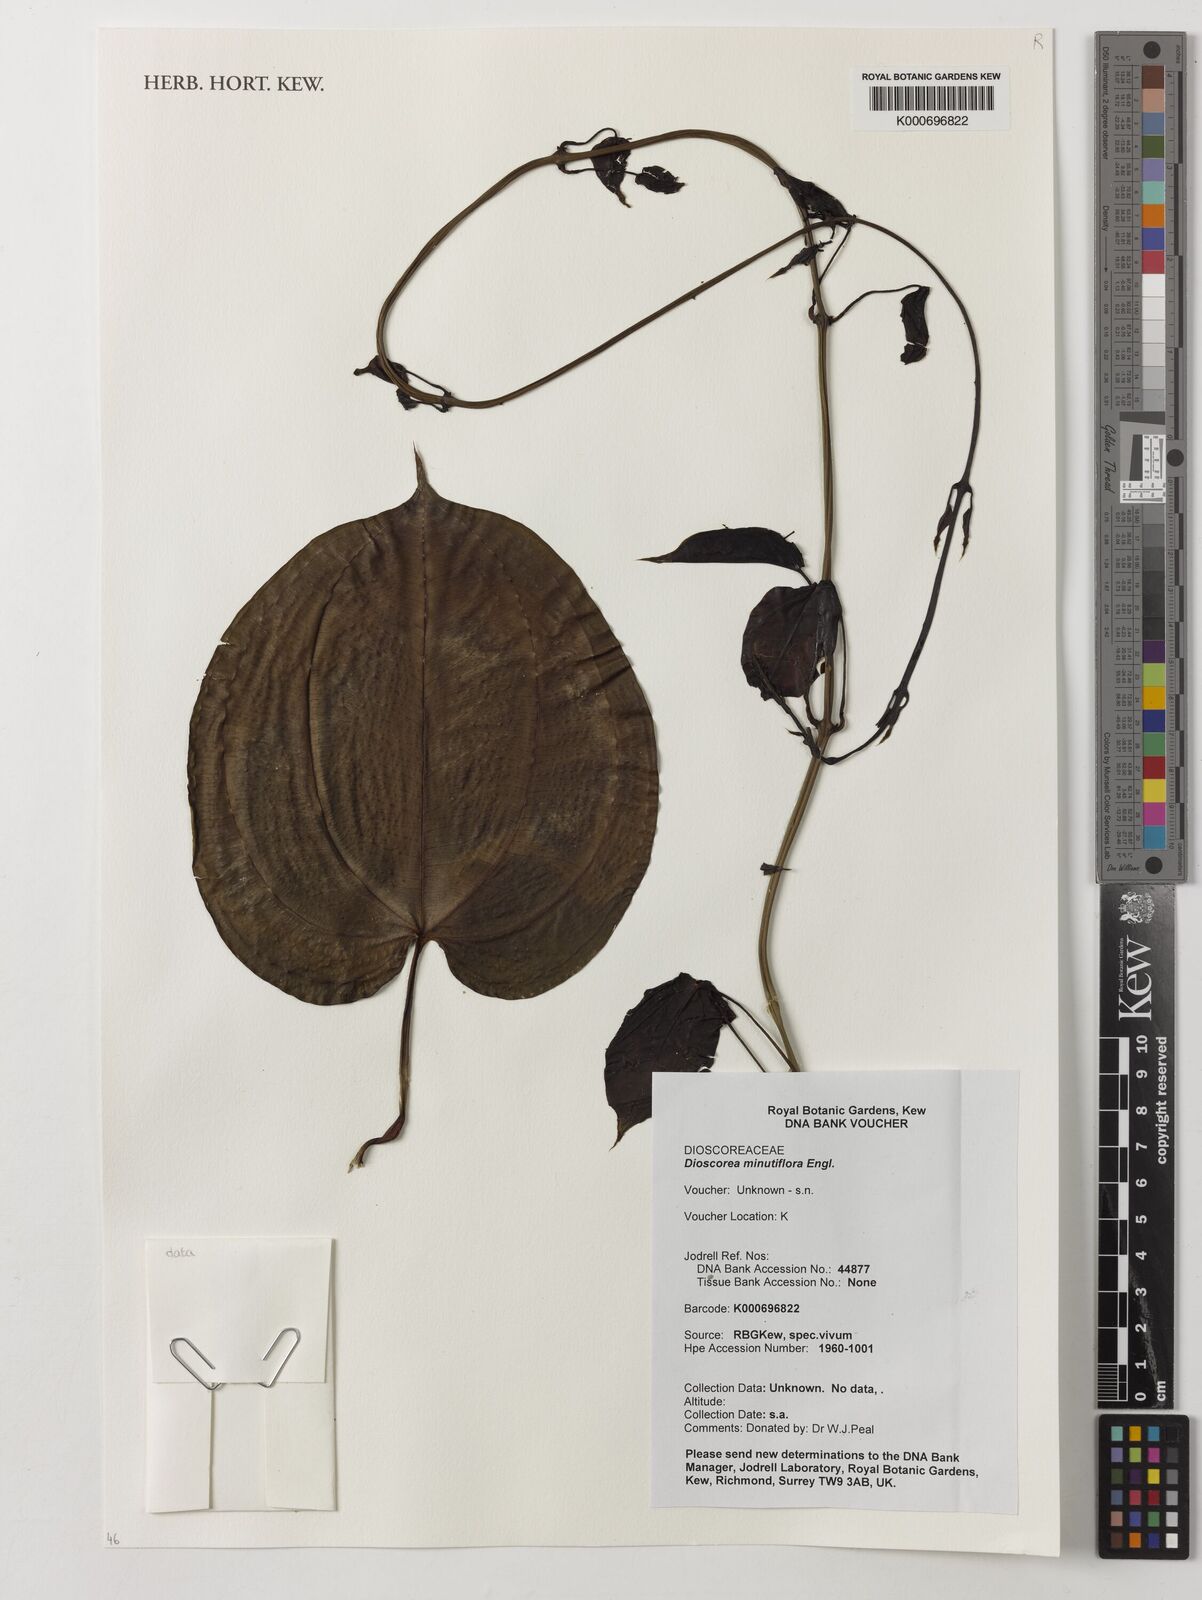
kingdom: Plantae
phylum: Tracheophyta
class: Liliopsida
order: Dioscoreales
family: Dioscoreaceae
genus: Dioscorea
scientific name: Dioscorea minutiflora
